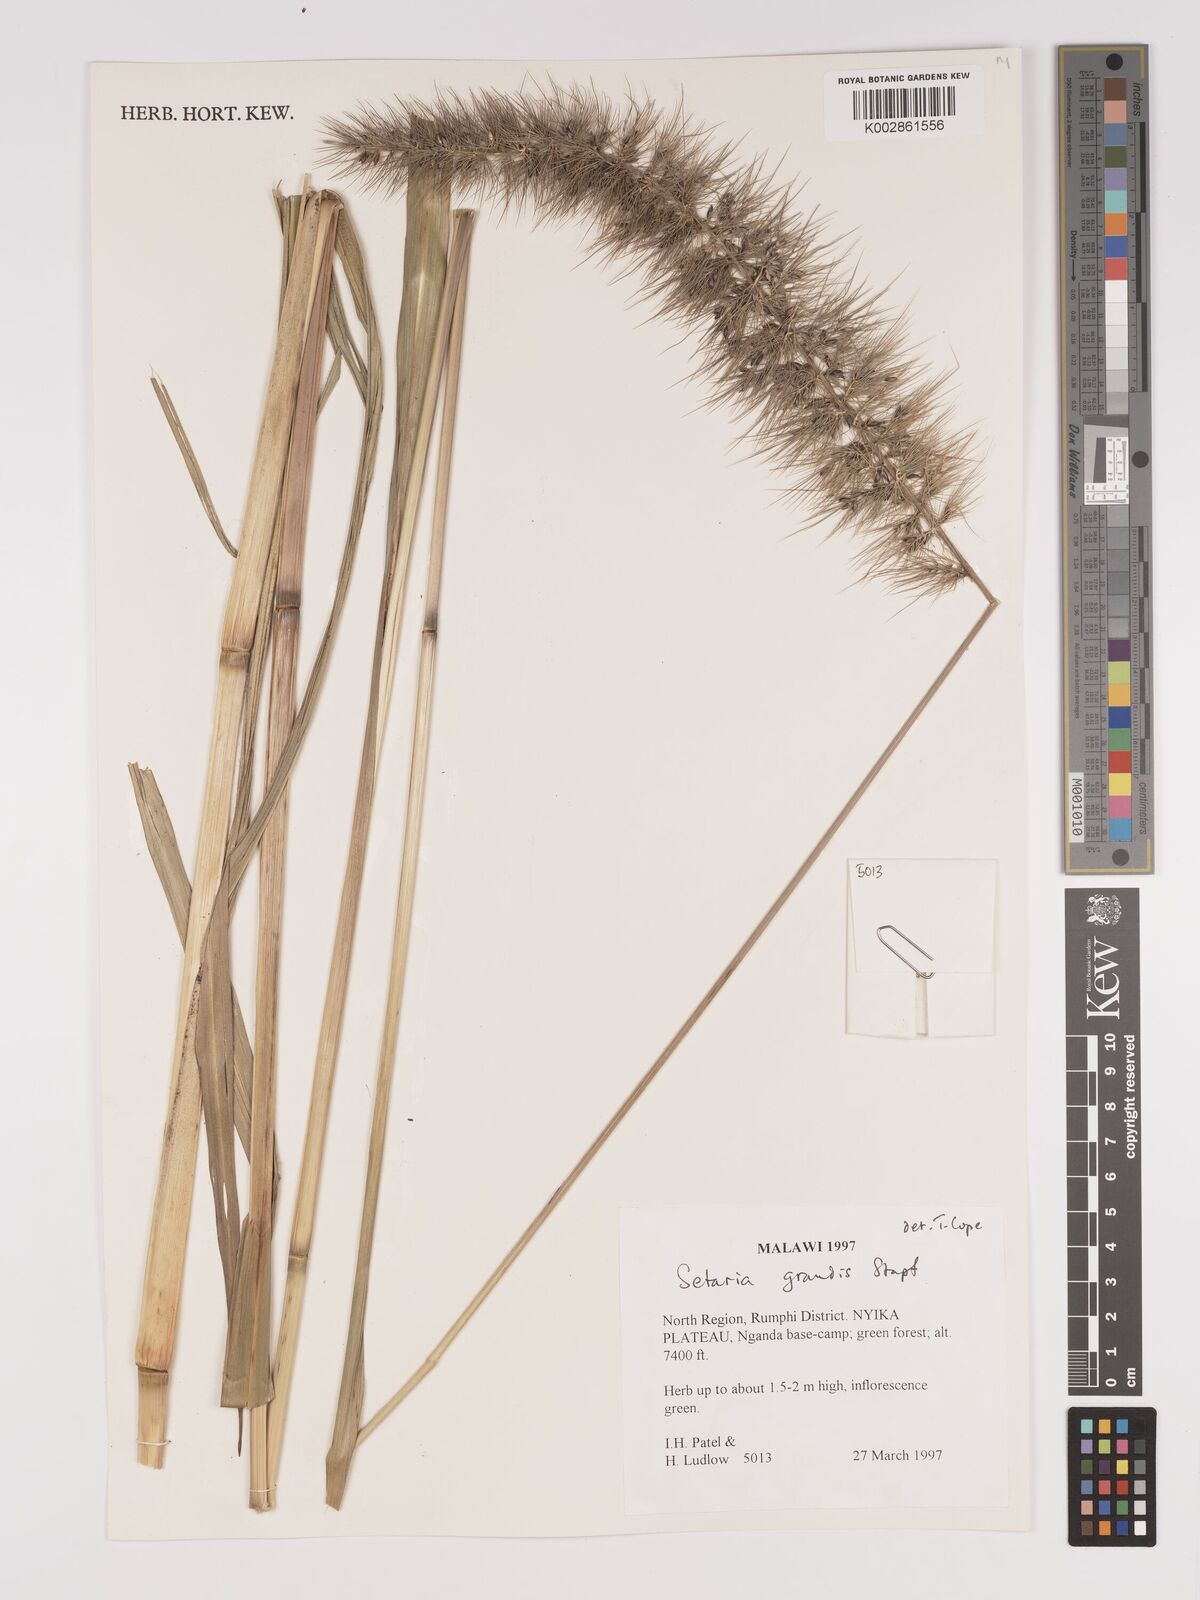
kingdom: Plantae
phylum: Tracheophyta
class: Liliopsida
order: Poales
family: Poaceae
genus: Setaria
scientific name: Setaria grandis
